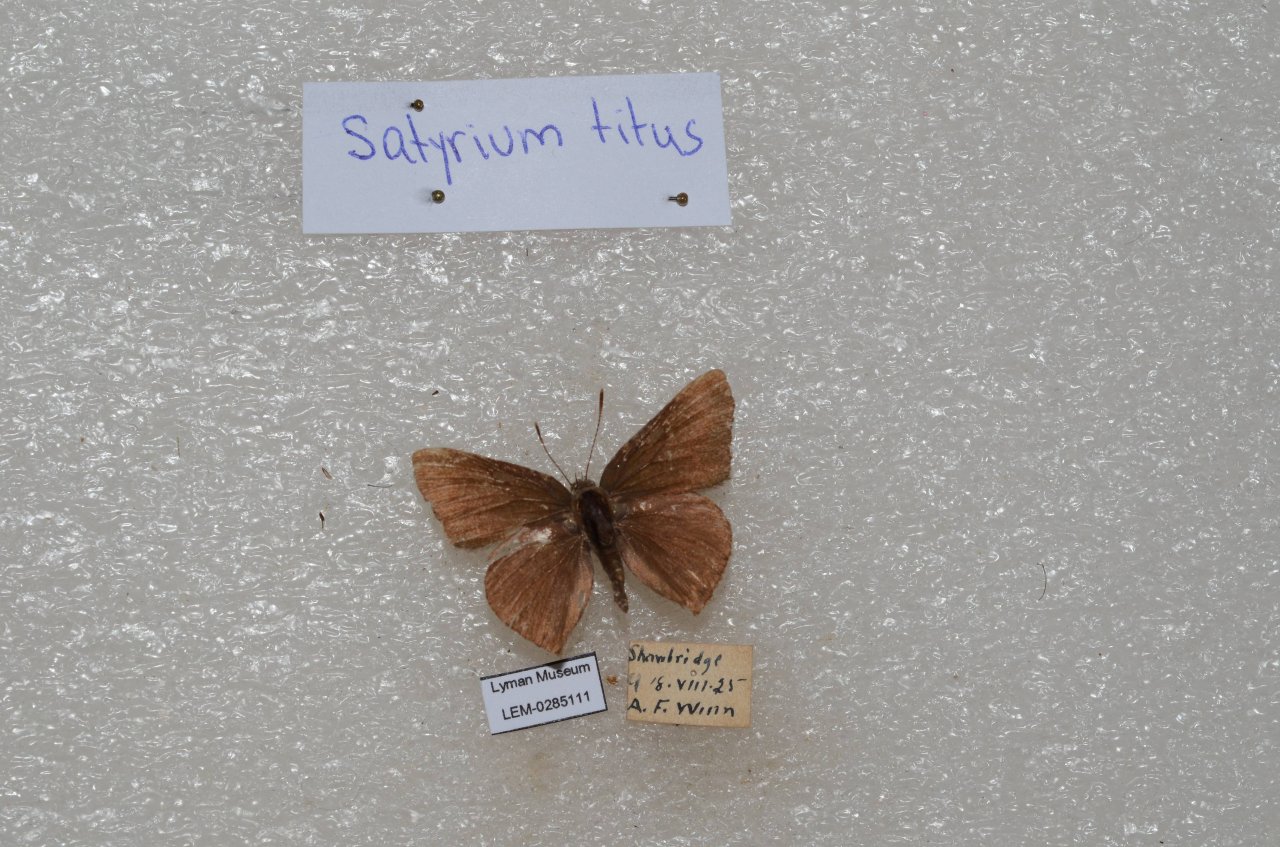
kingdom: Animalia
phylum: Arthropoda
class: Insecta
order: Lepidoptera
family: Lycaenidae
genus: Harkenclenus
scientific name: Harkenclenus titus
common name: Coral Hairstreak
